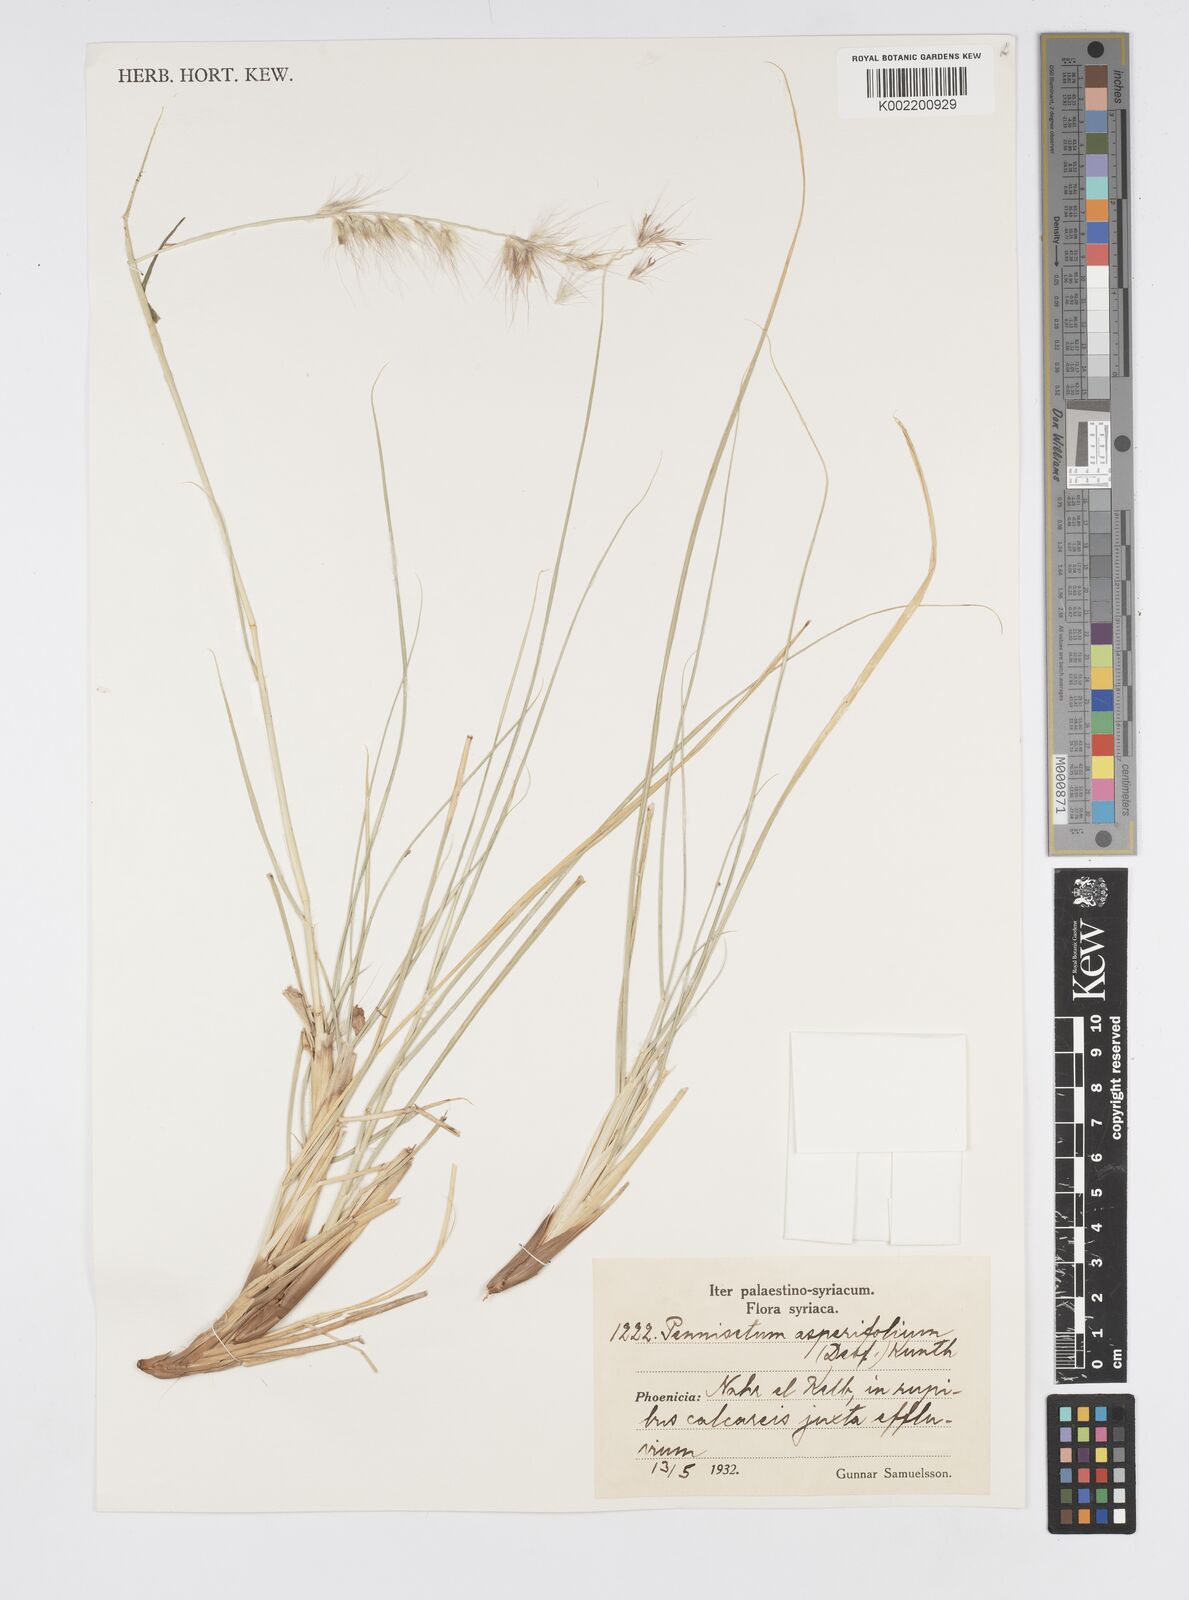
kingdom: Plantae
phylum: Tracheophyta
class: Liliopsida
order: Poales
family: Poaceae
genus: Cenchrus
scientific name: Cenchrus setaceus
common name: Crimson fountaingrass
